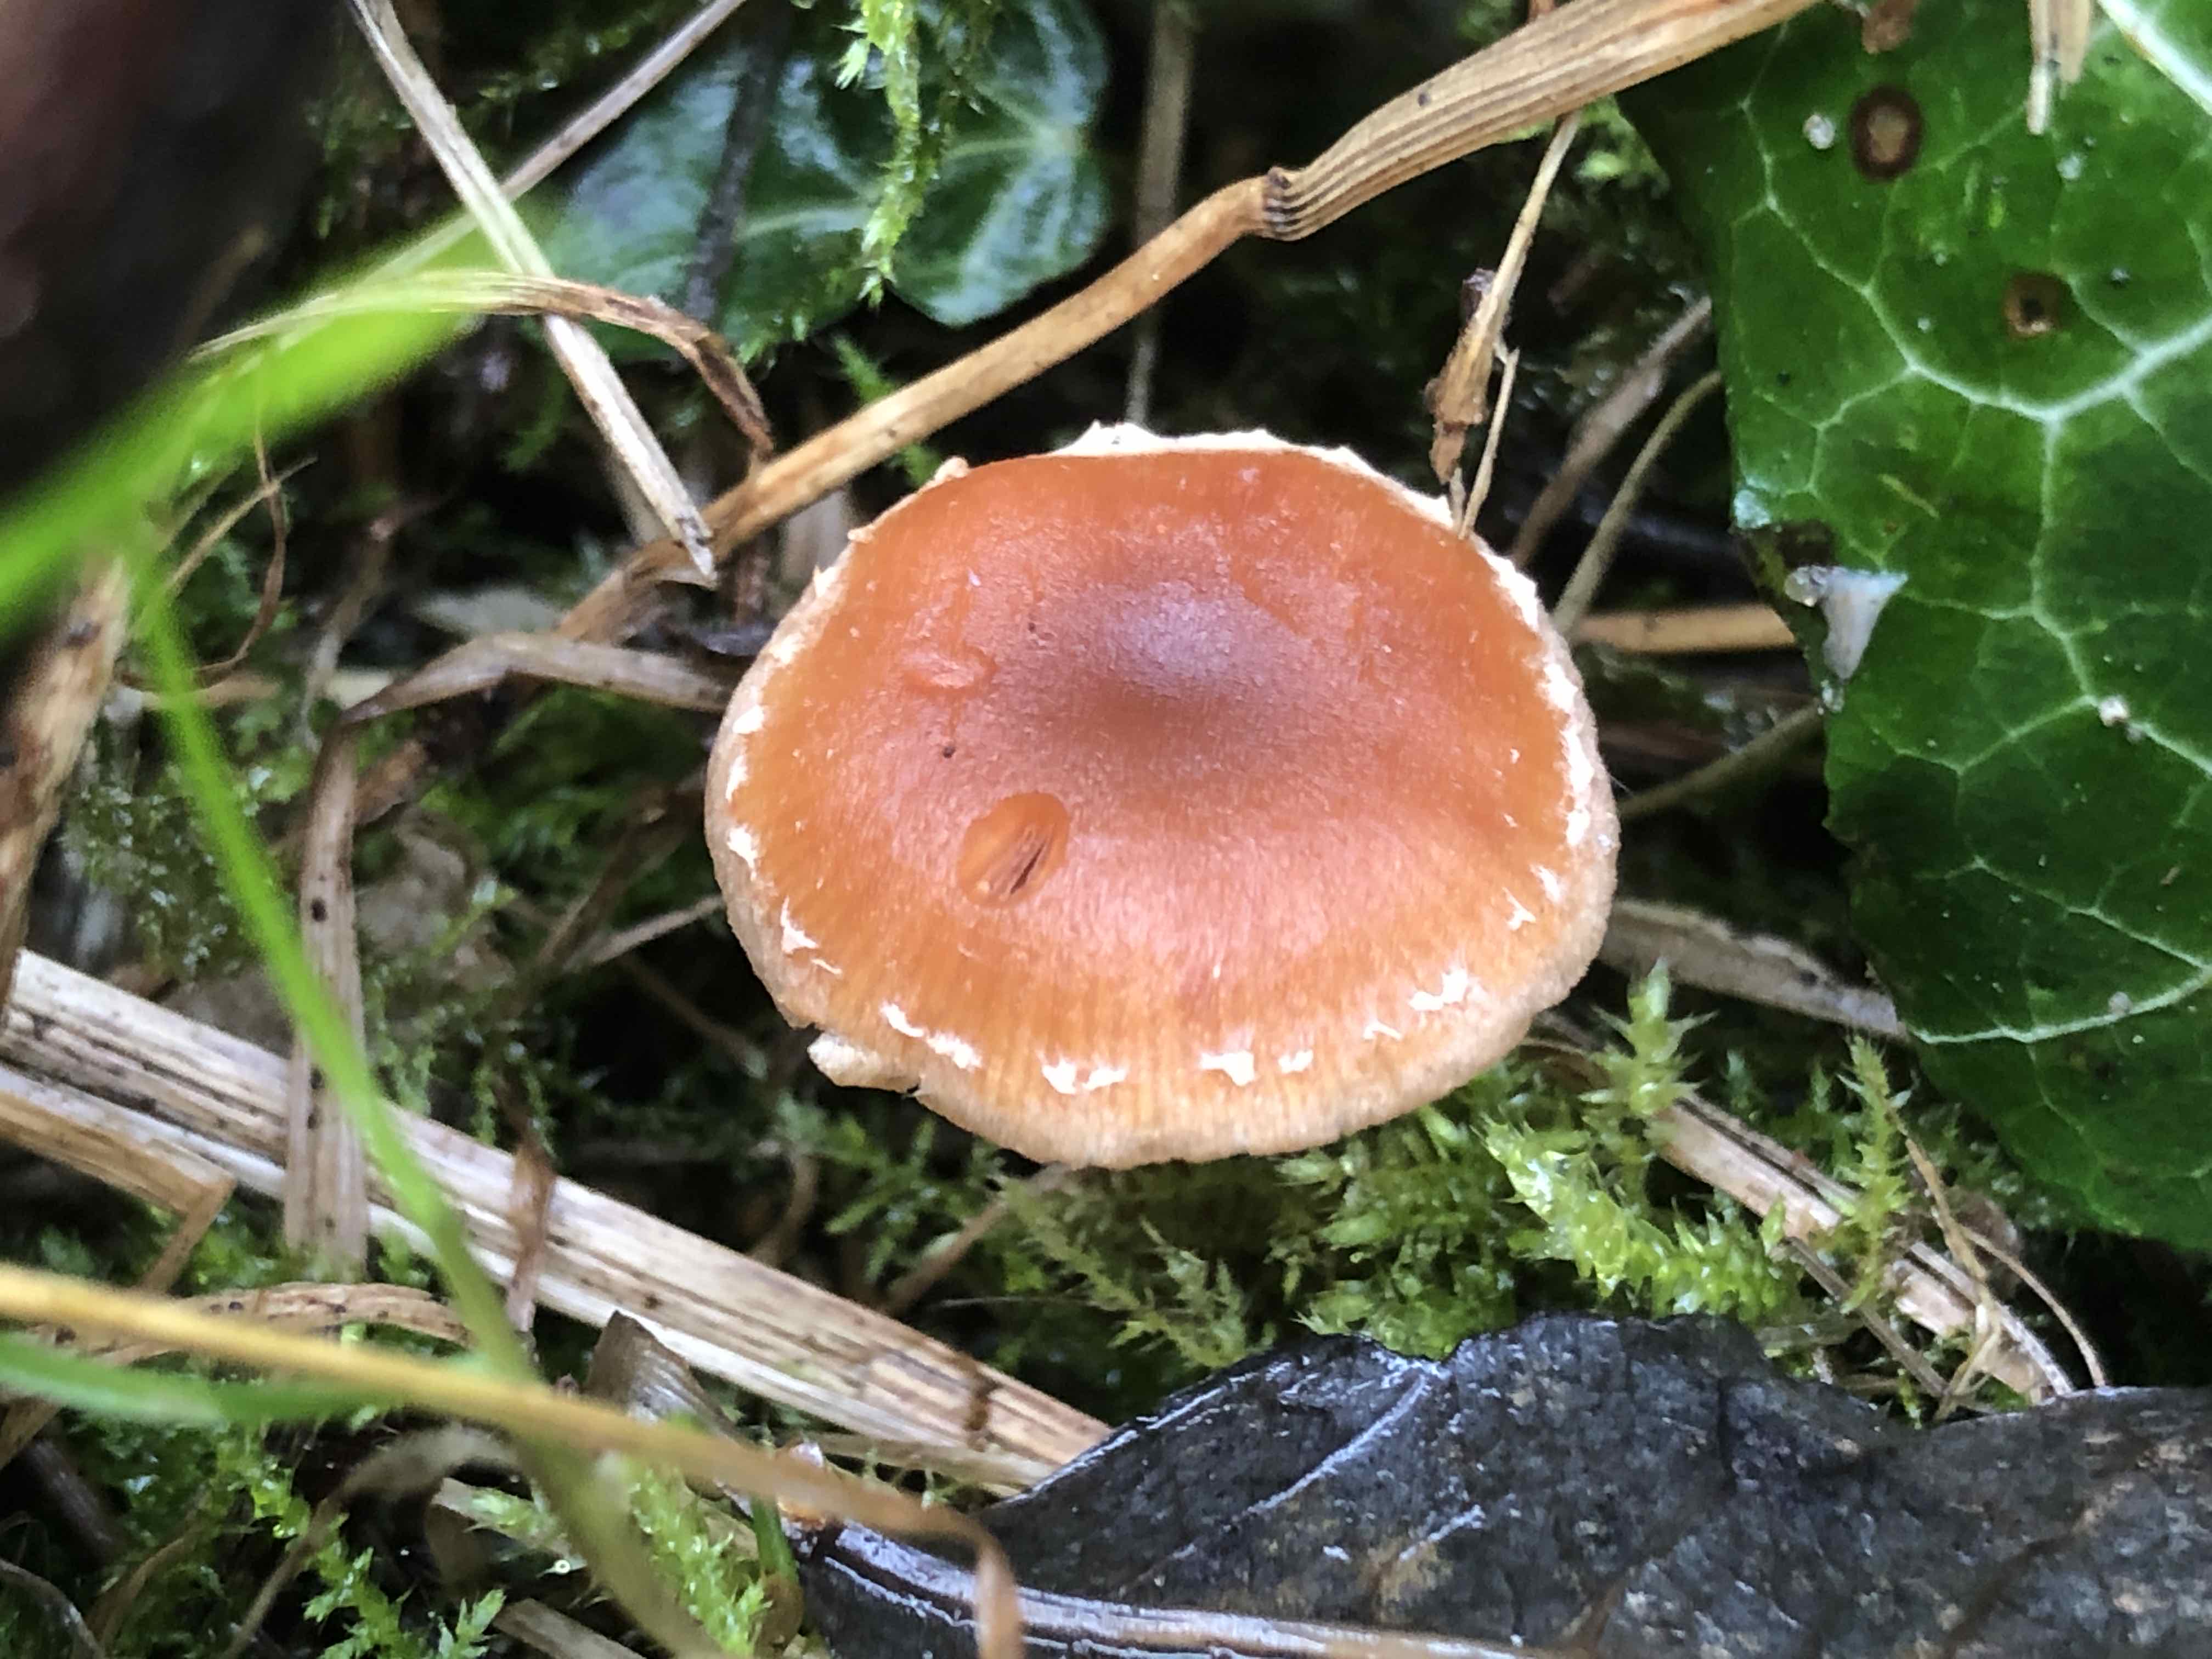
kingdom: Fungi
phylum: Basidiomycota
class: Agaricomycetes
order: Agaricales
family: Tubariaceae
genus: Tubaria
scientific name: Tubaria furfuracea
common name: kliddet fnughat
